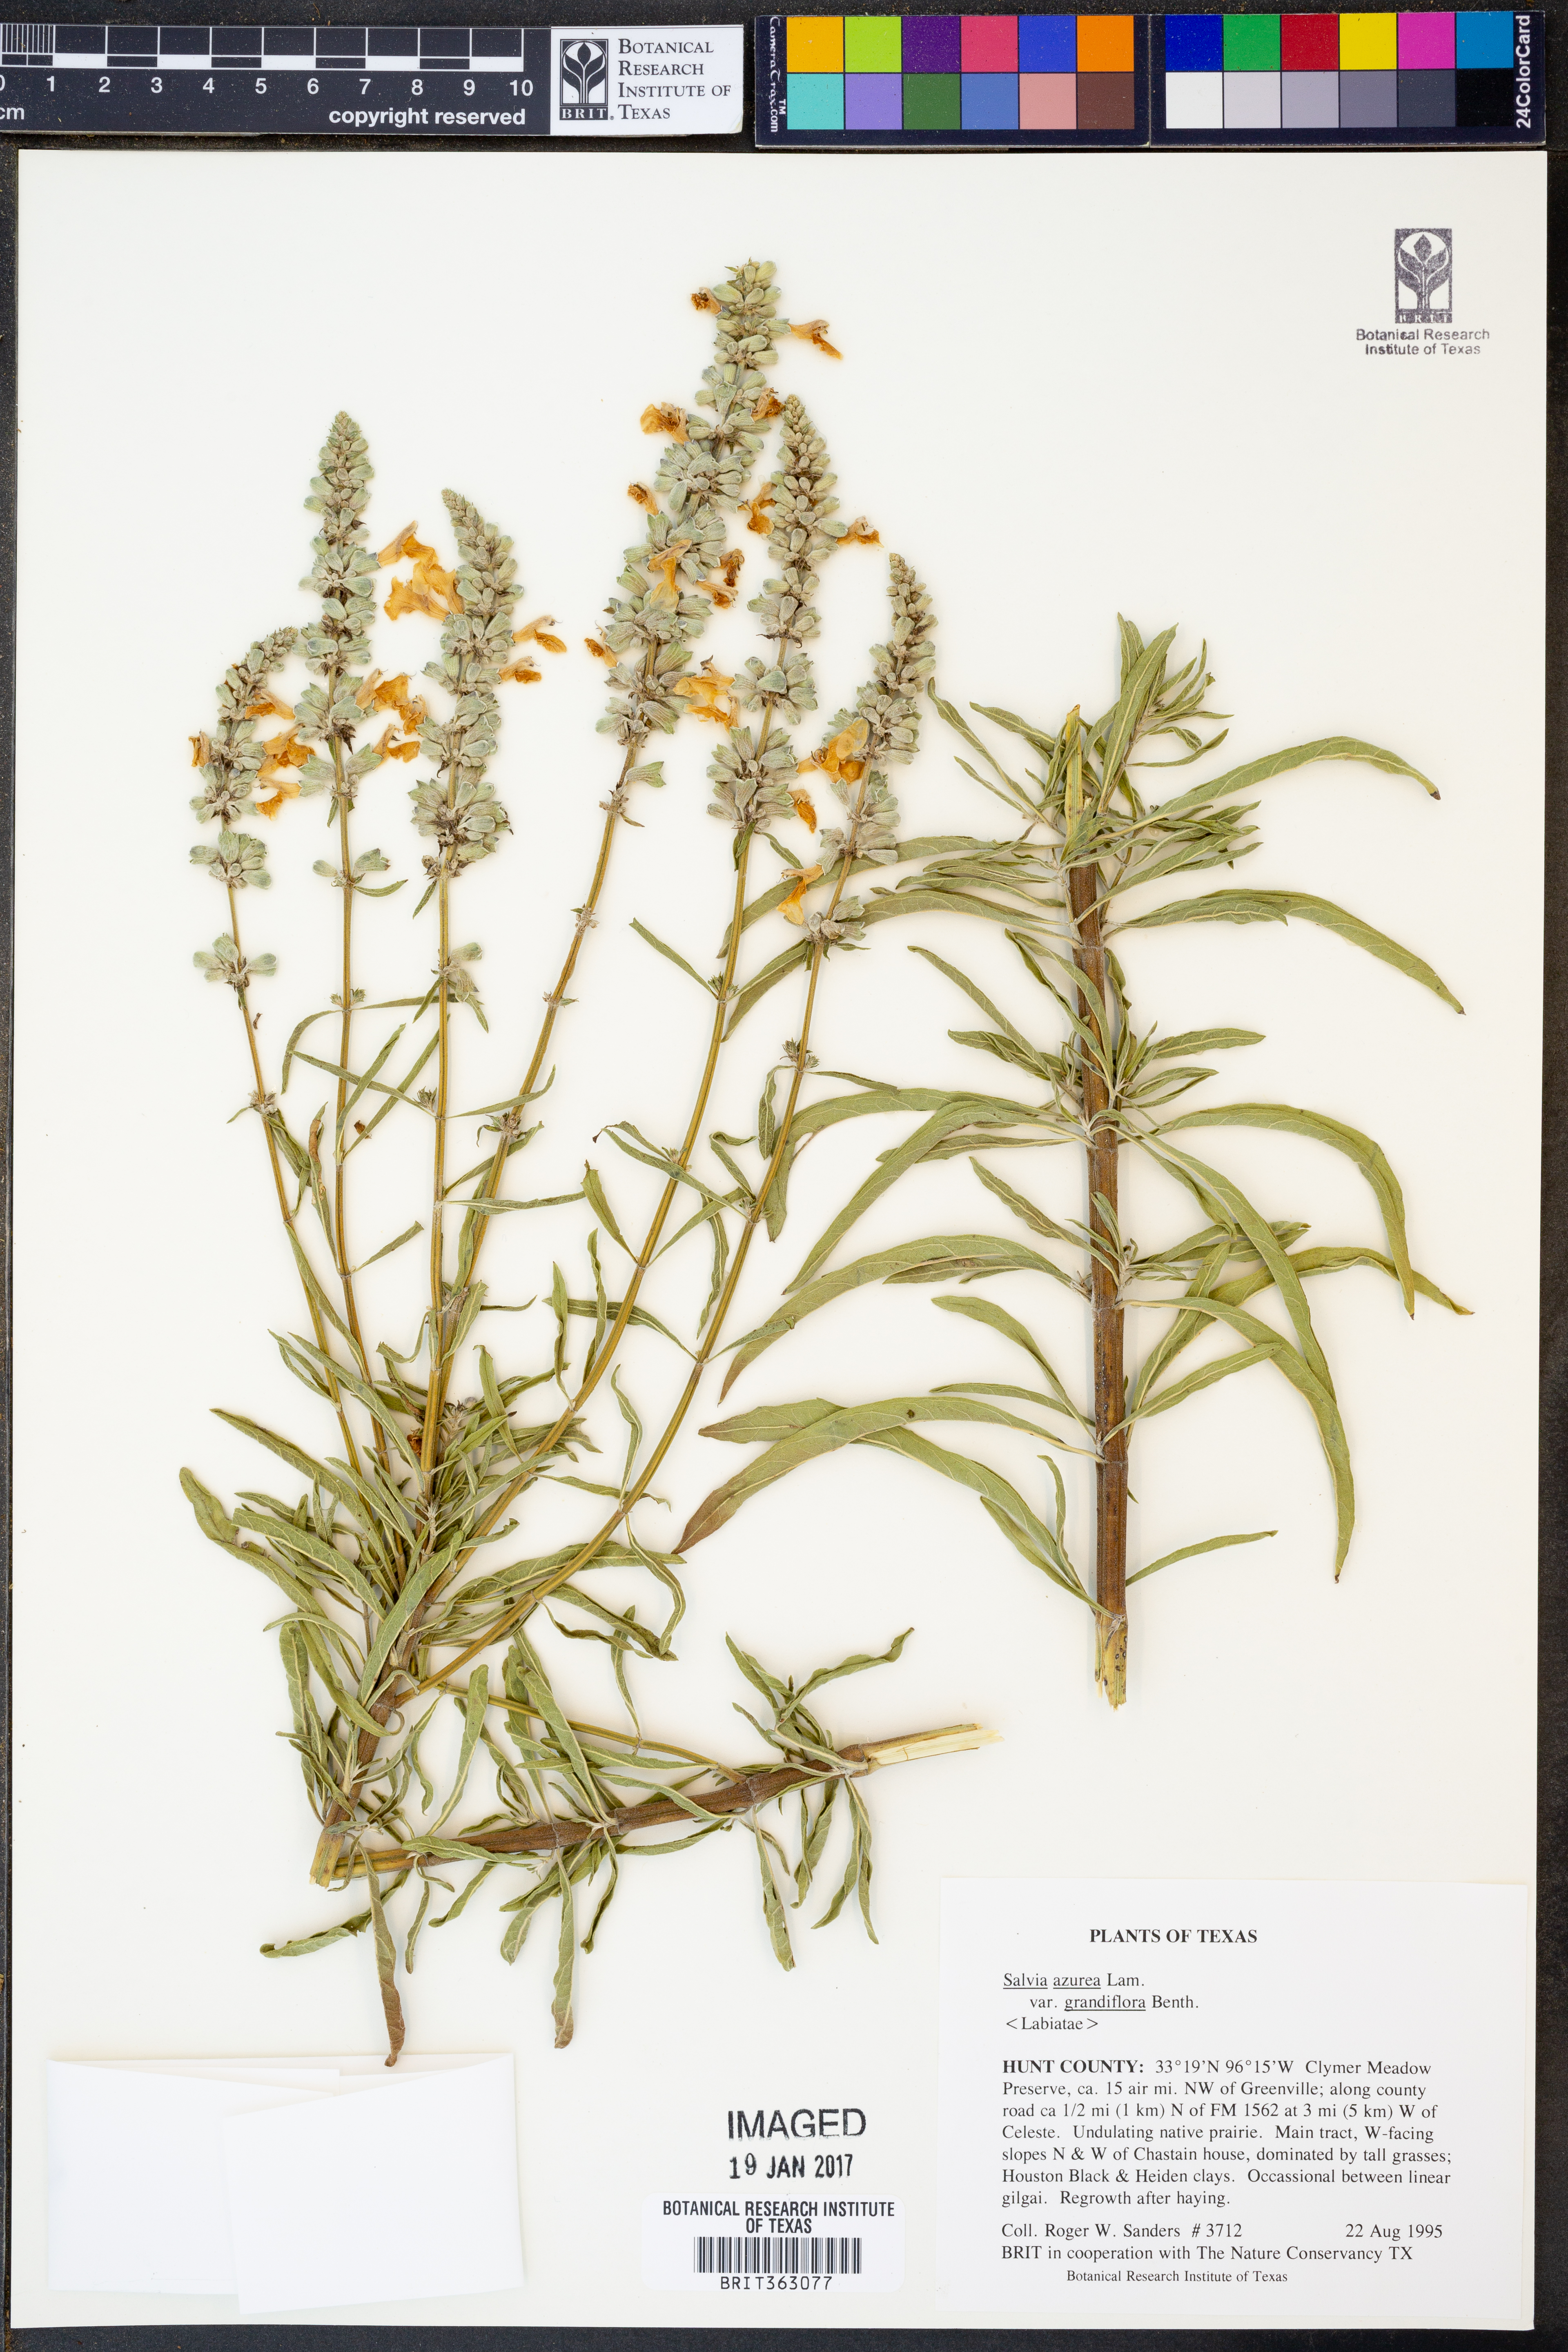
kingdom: Plantae
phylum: Tracheophyta
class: Magnoliopsida
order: Lamiales
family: Lamiaceae
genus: Salvia
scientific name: Salvia azurea
